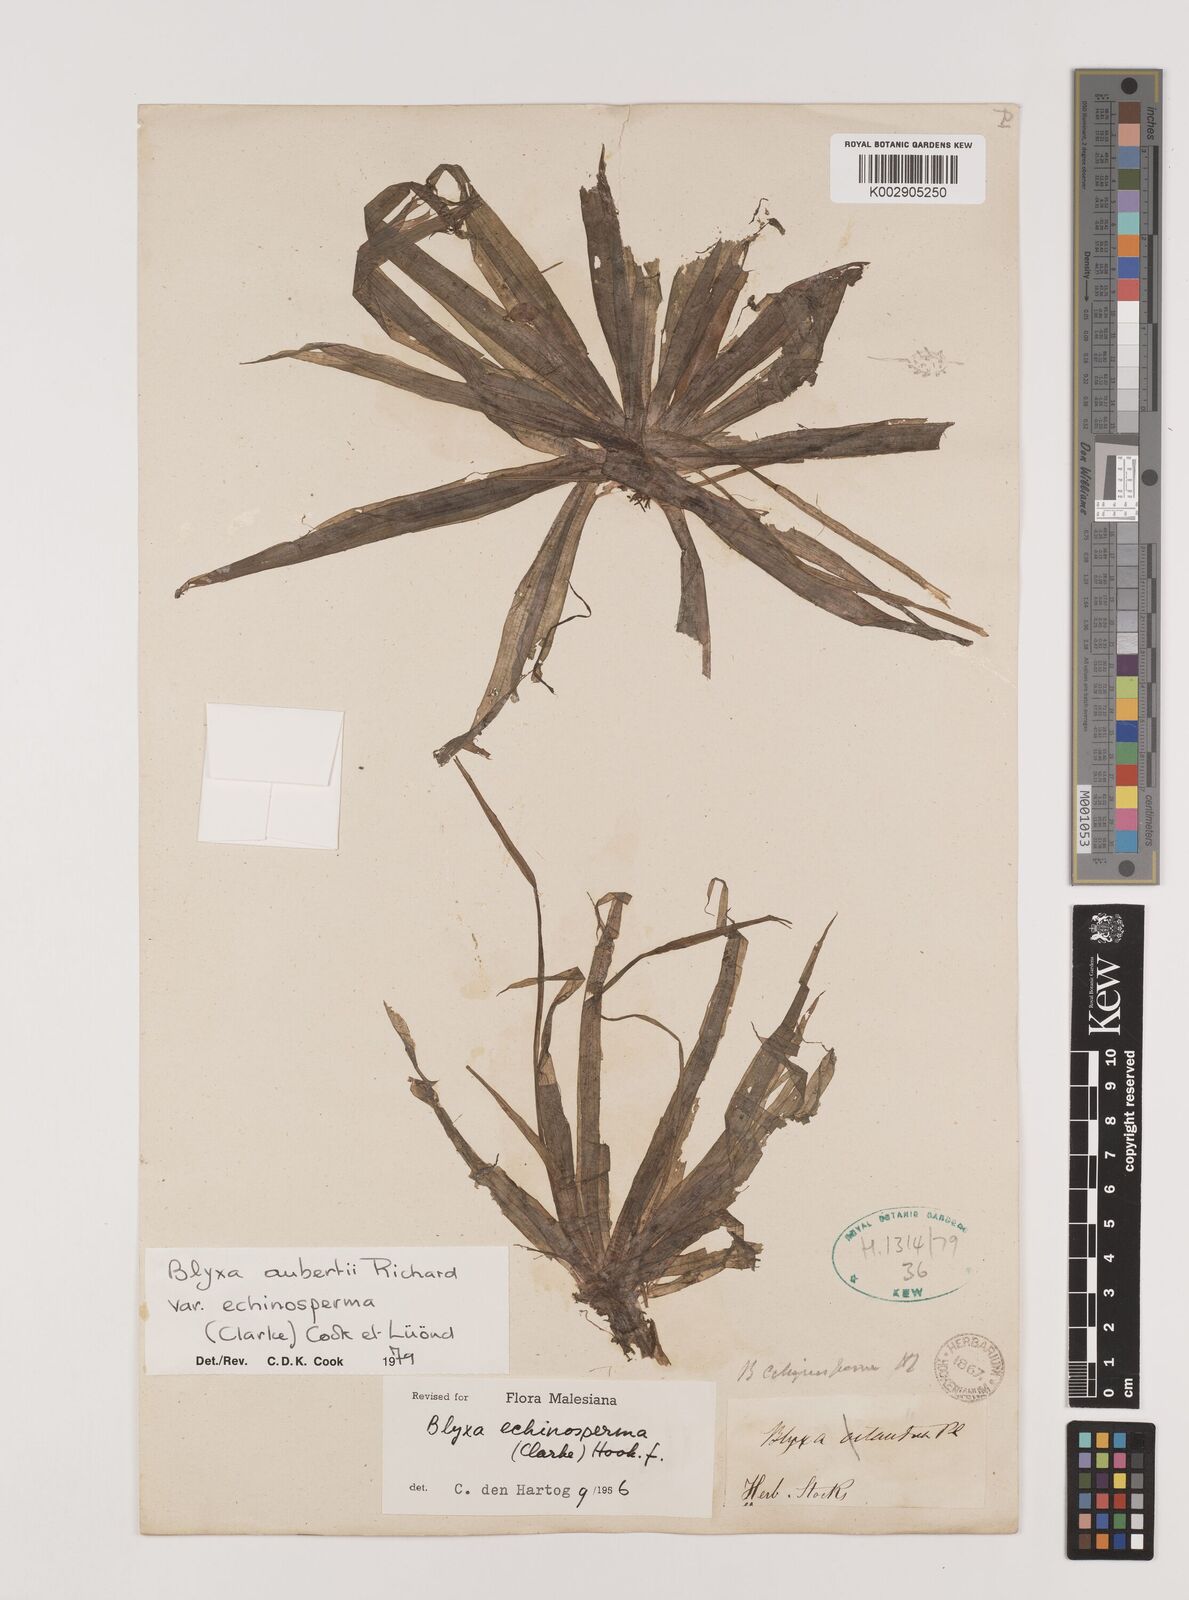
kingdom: Plantae
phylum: Tracheophyta
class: Liliopsida
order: Alismatales
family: Hydrocharitaceae
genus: Blyxa
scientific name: Blyxa echinosperma
